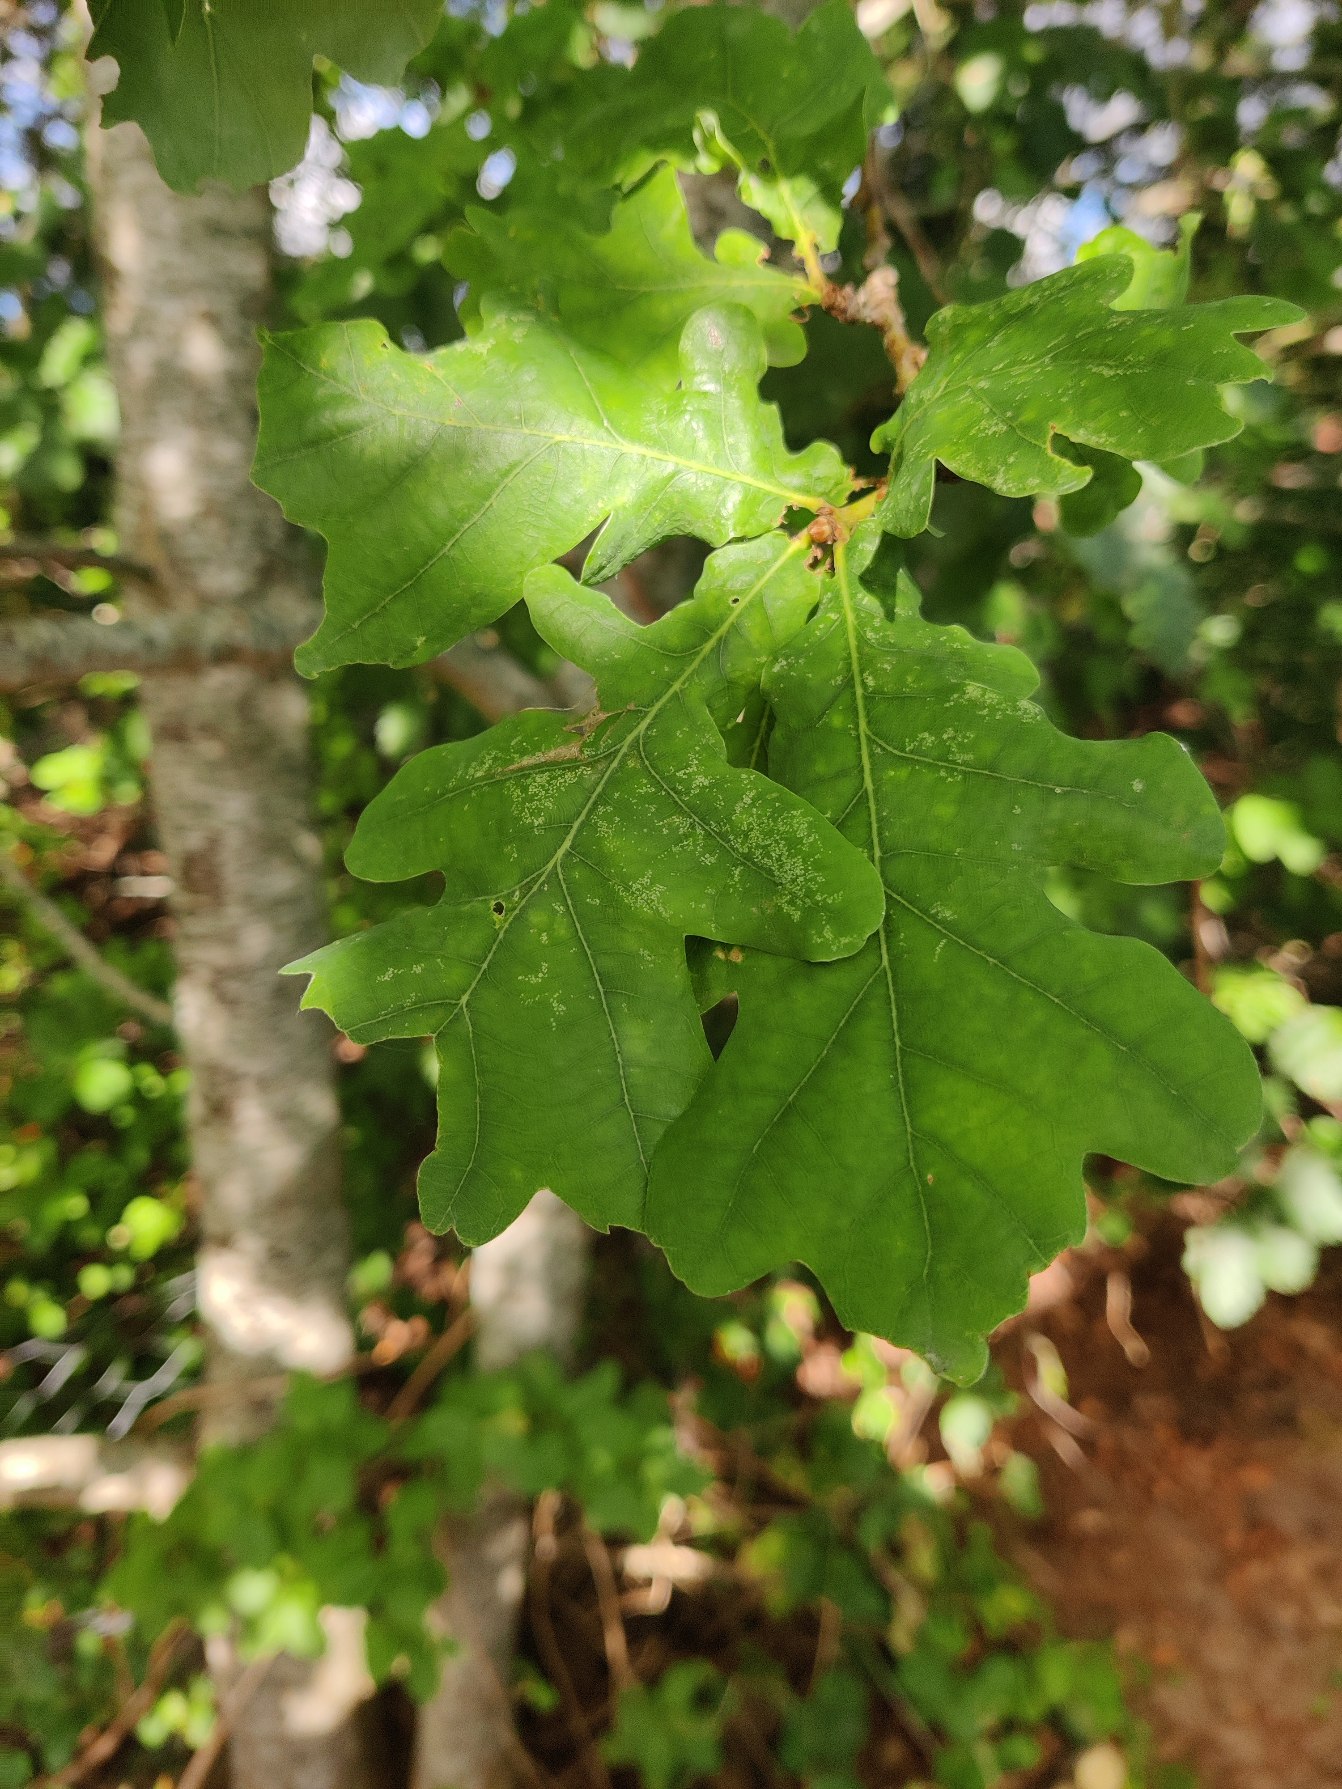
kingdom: Plantae
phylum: Tracheophyta
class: Magnoliopsida
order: Fagales
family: Fagaceae
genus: Quercus
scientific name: Quercus robur
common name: Stilk-eg/almindelig eg
